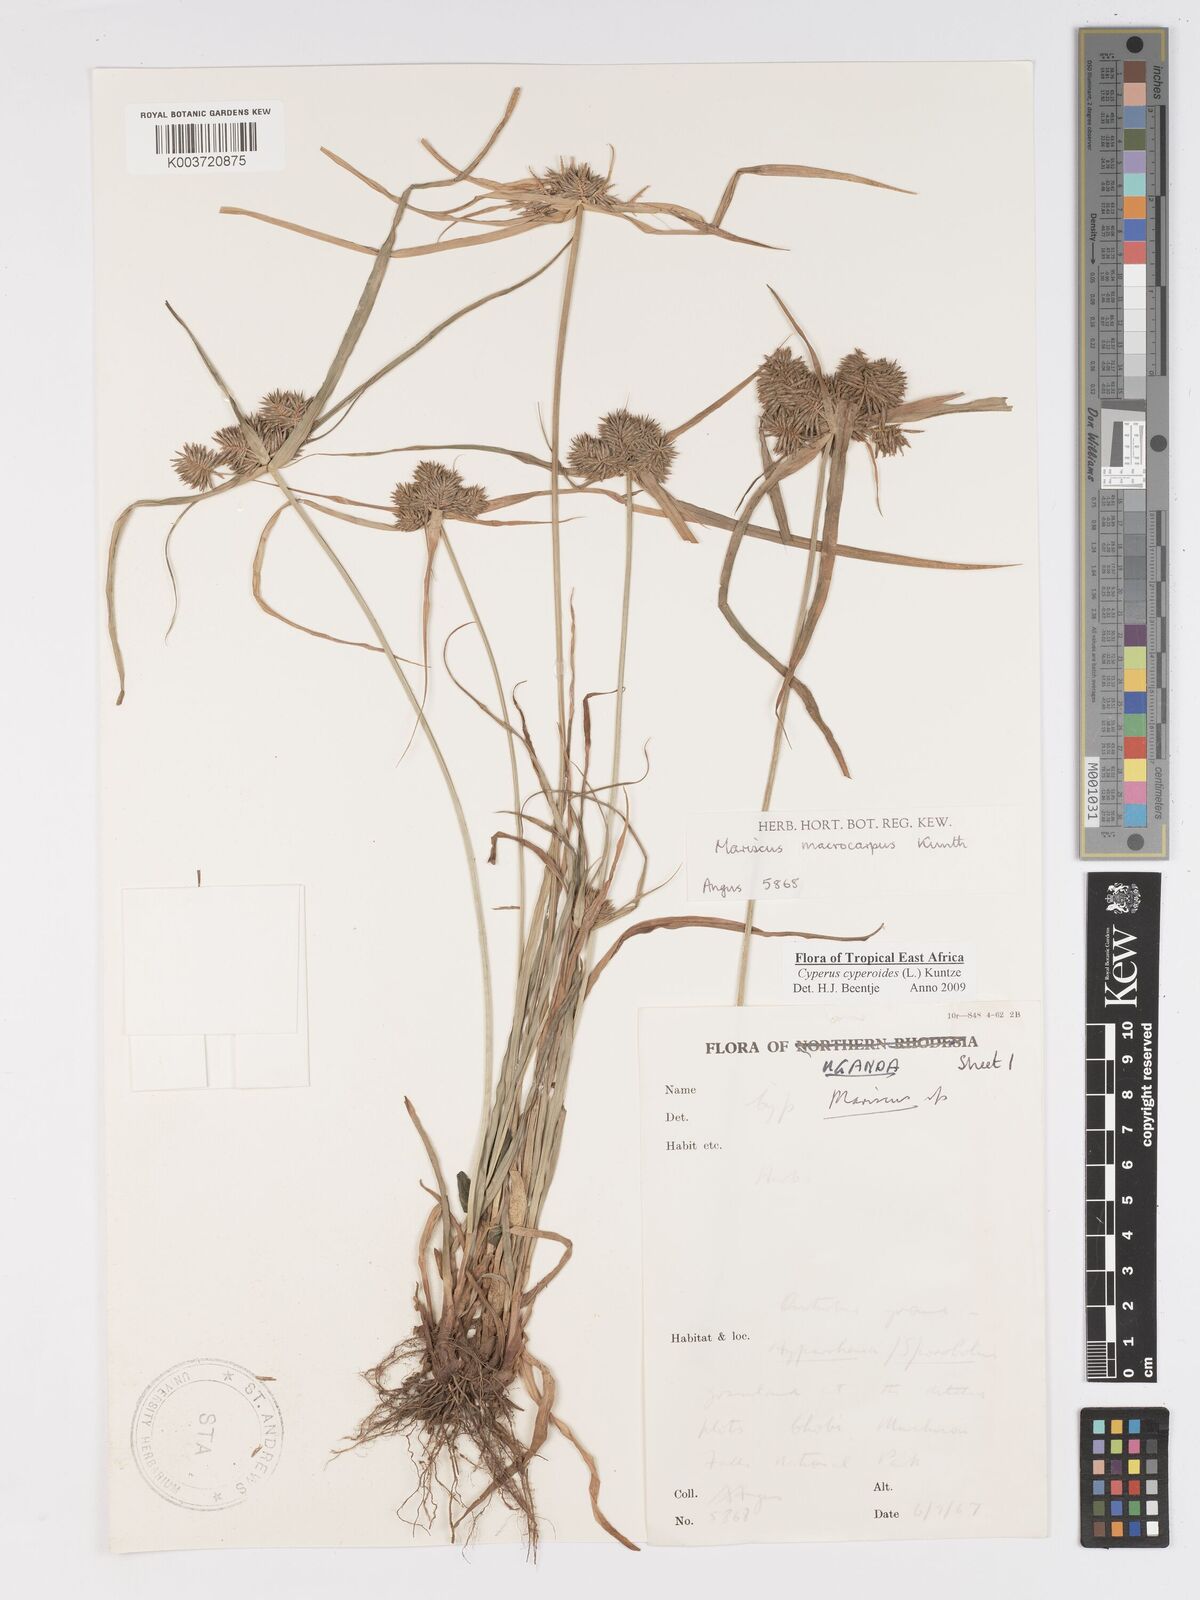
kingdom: Plantae
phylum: Tracheophyta
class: Liliopsida
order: Poales
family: Cyperaceae
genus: Cyperus
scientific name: Cyperus macrocarpus
